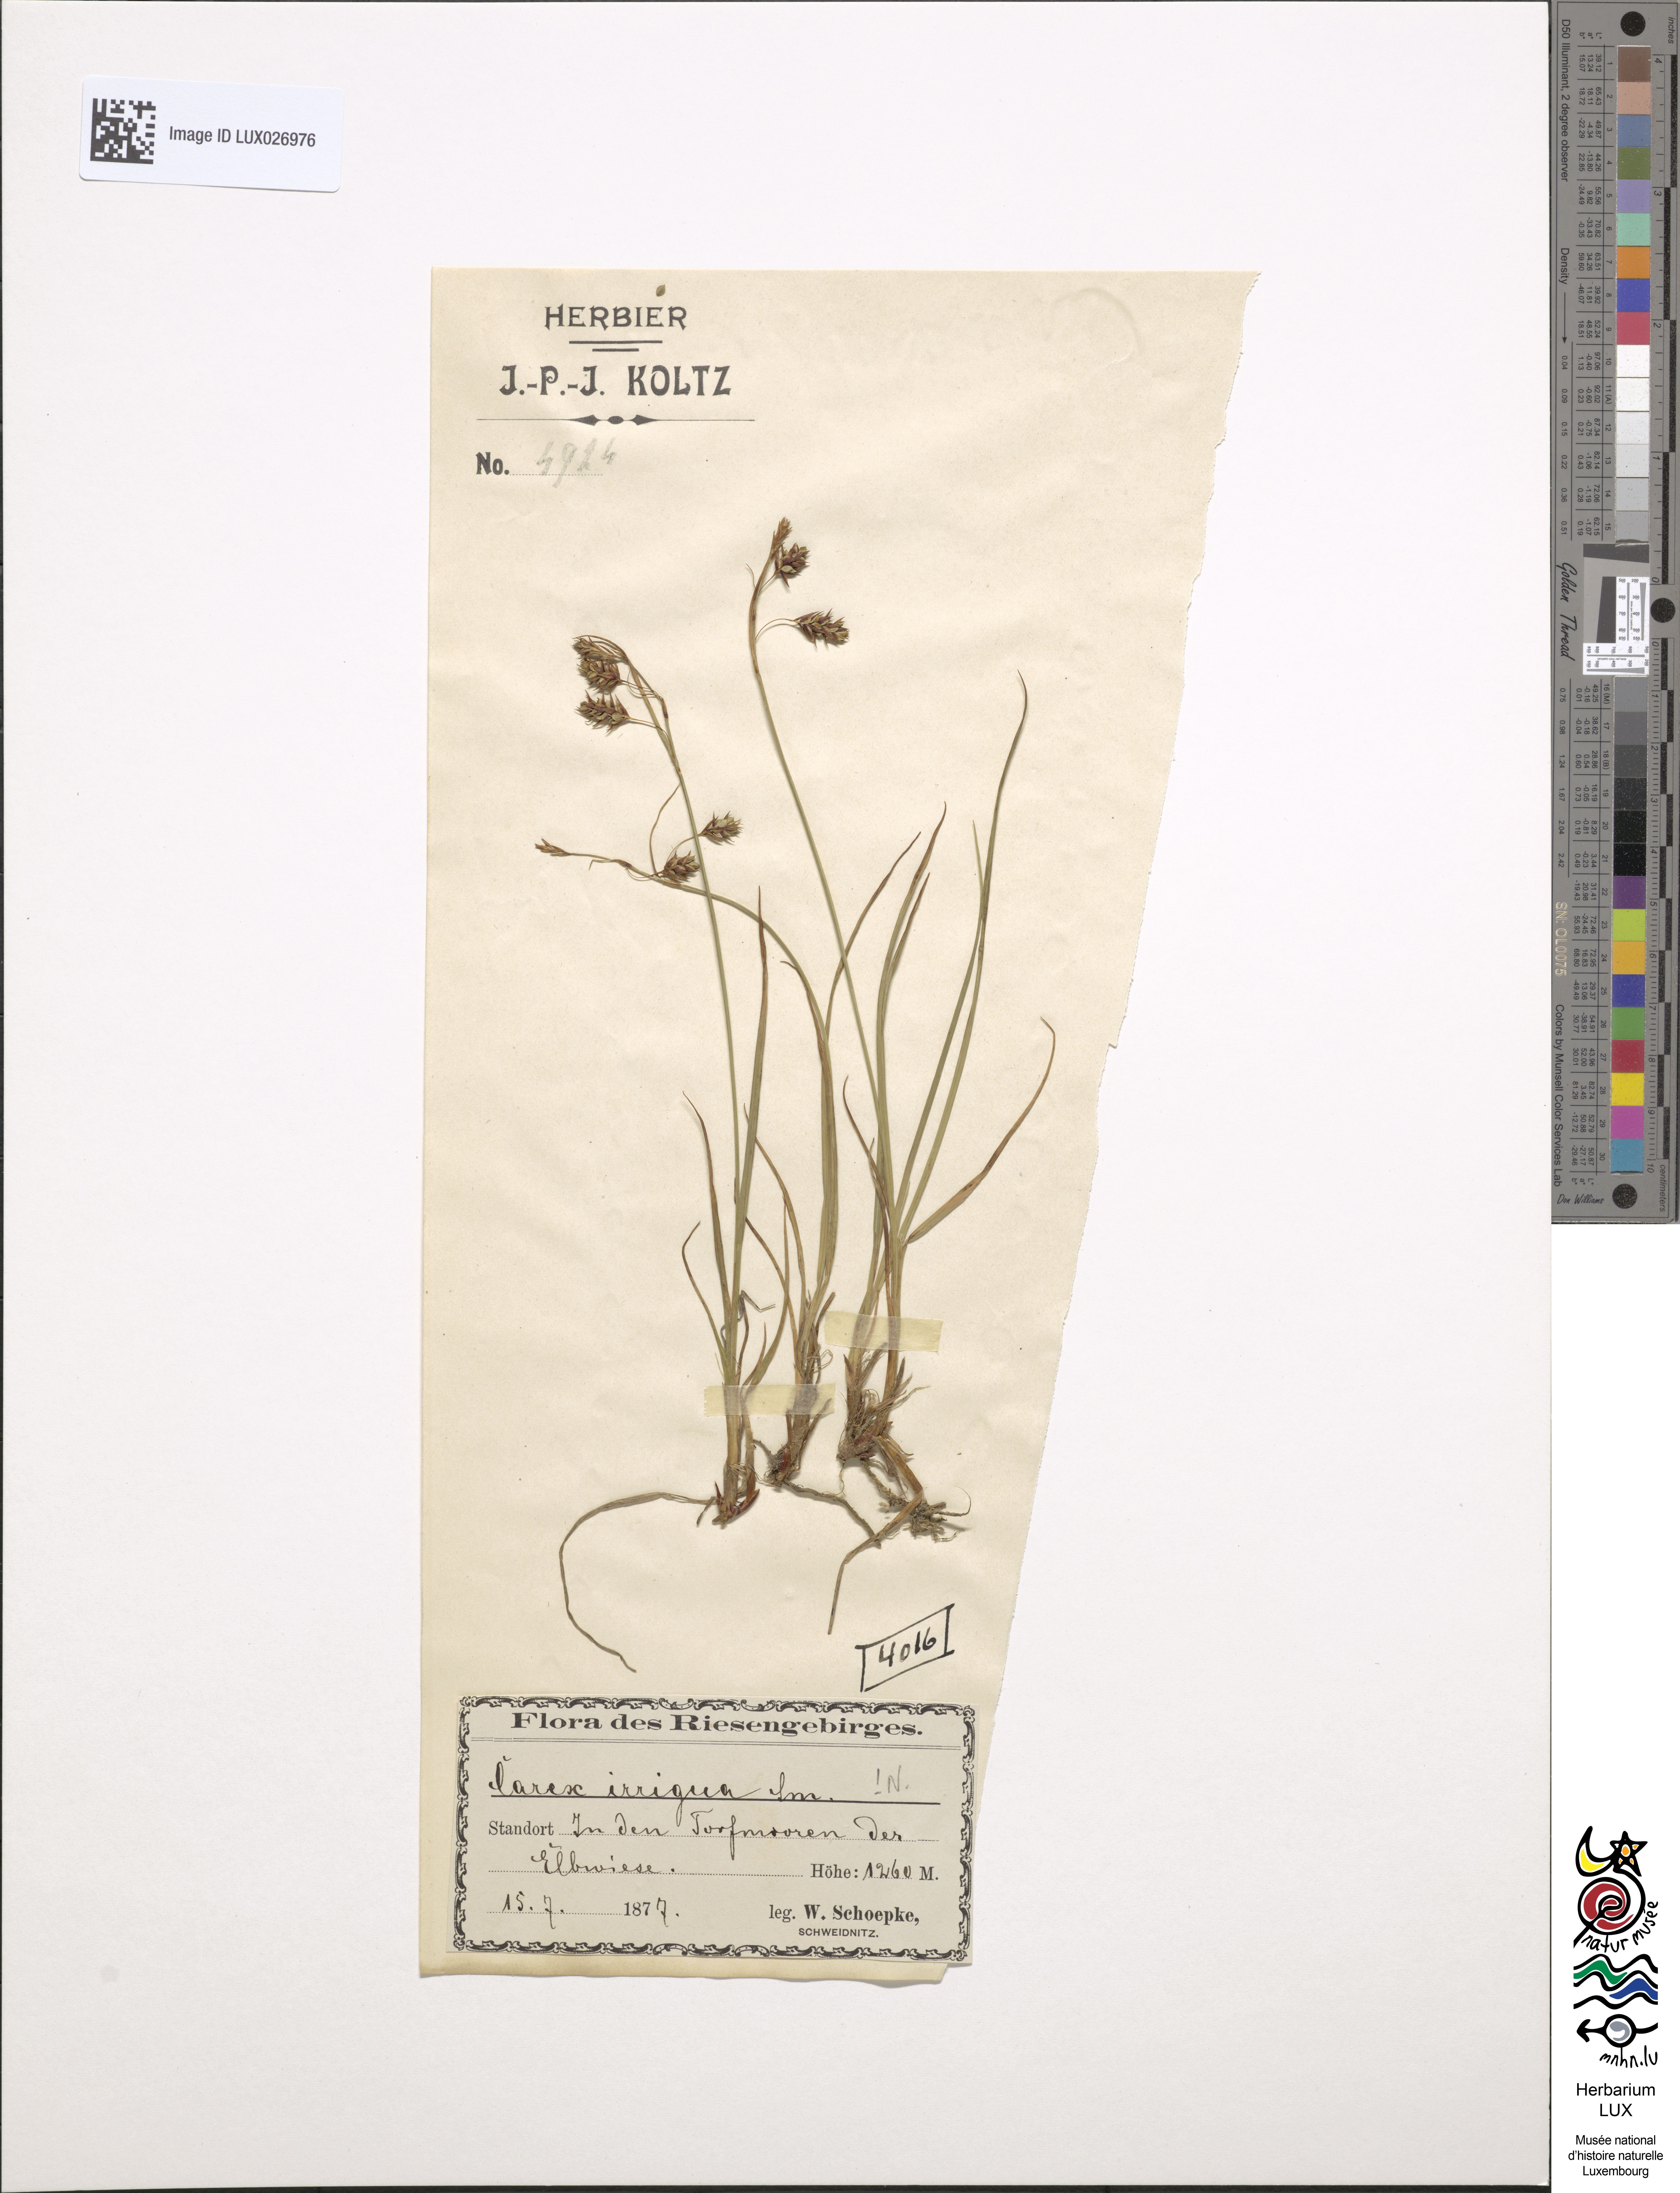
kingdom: Plantae
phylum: Tracheophyta
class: Liliopsida
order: Poales
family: Cyperaceae
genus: Carex
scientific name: Carex magellanica
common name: Bog sedge
